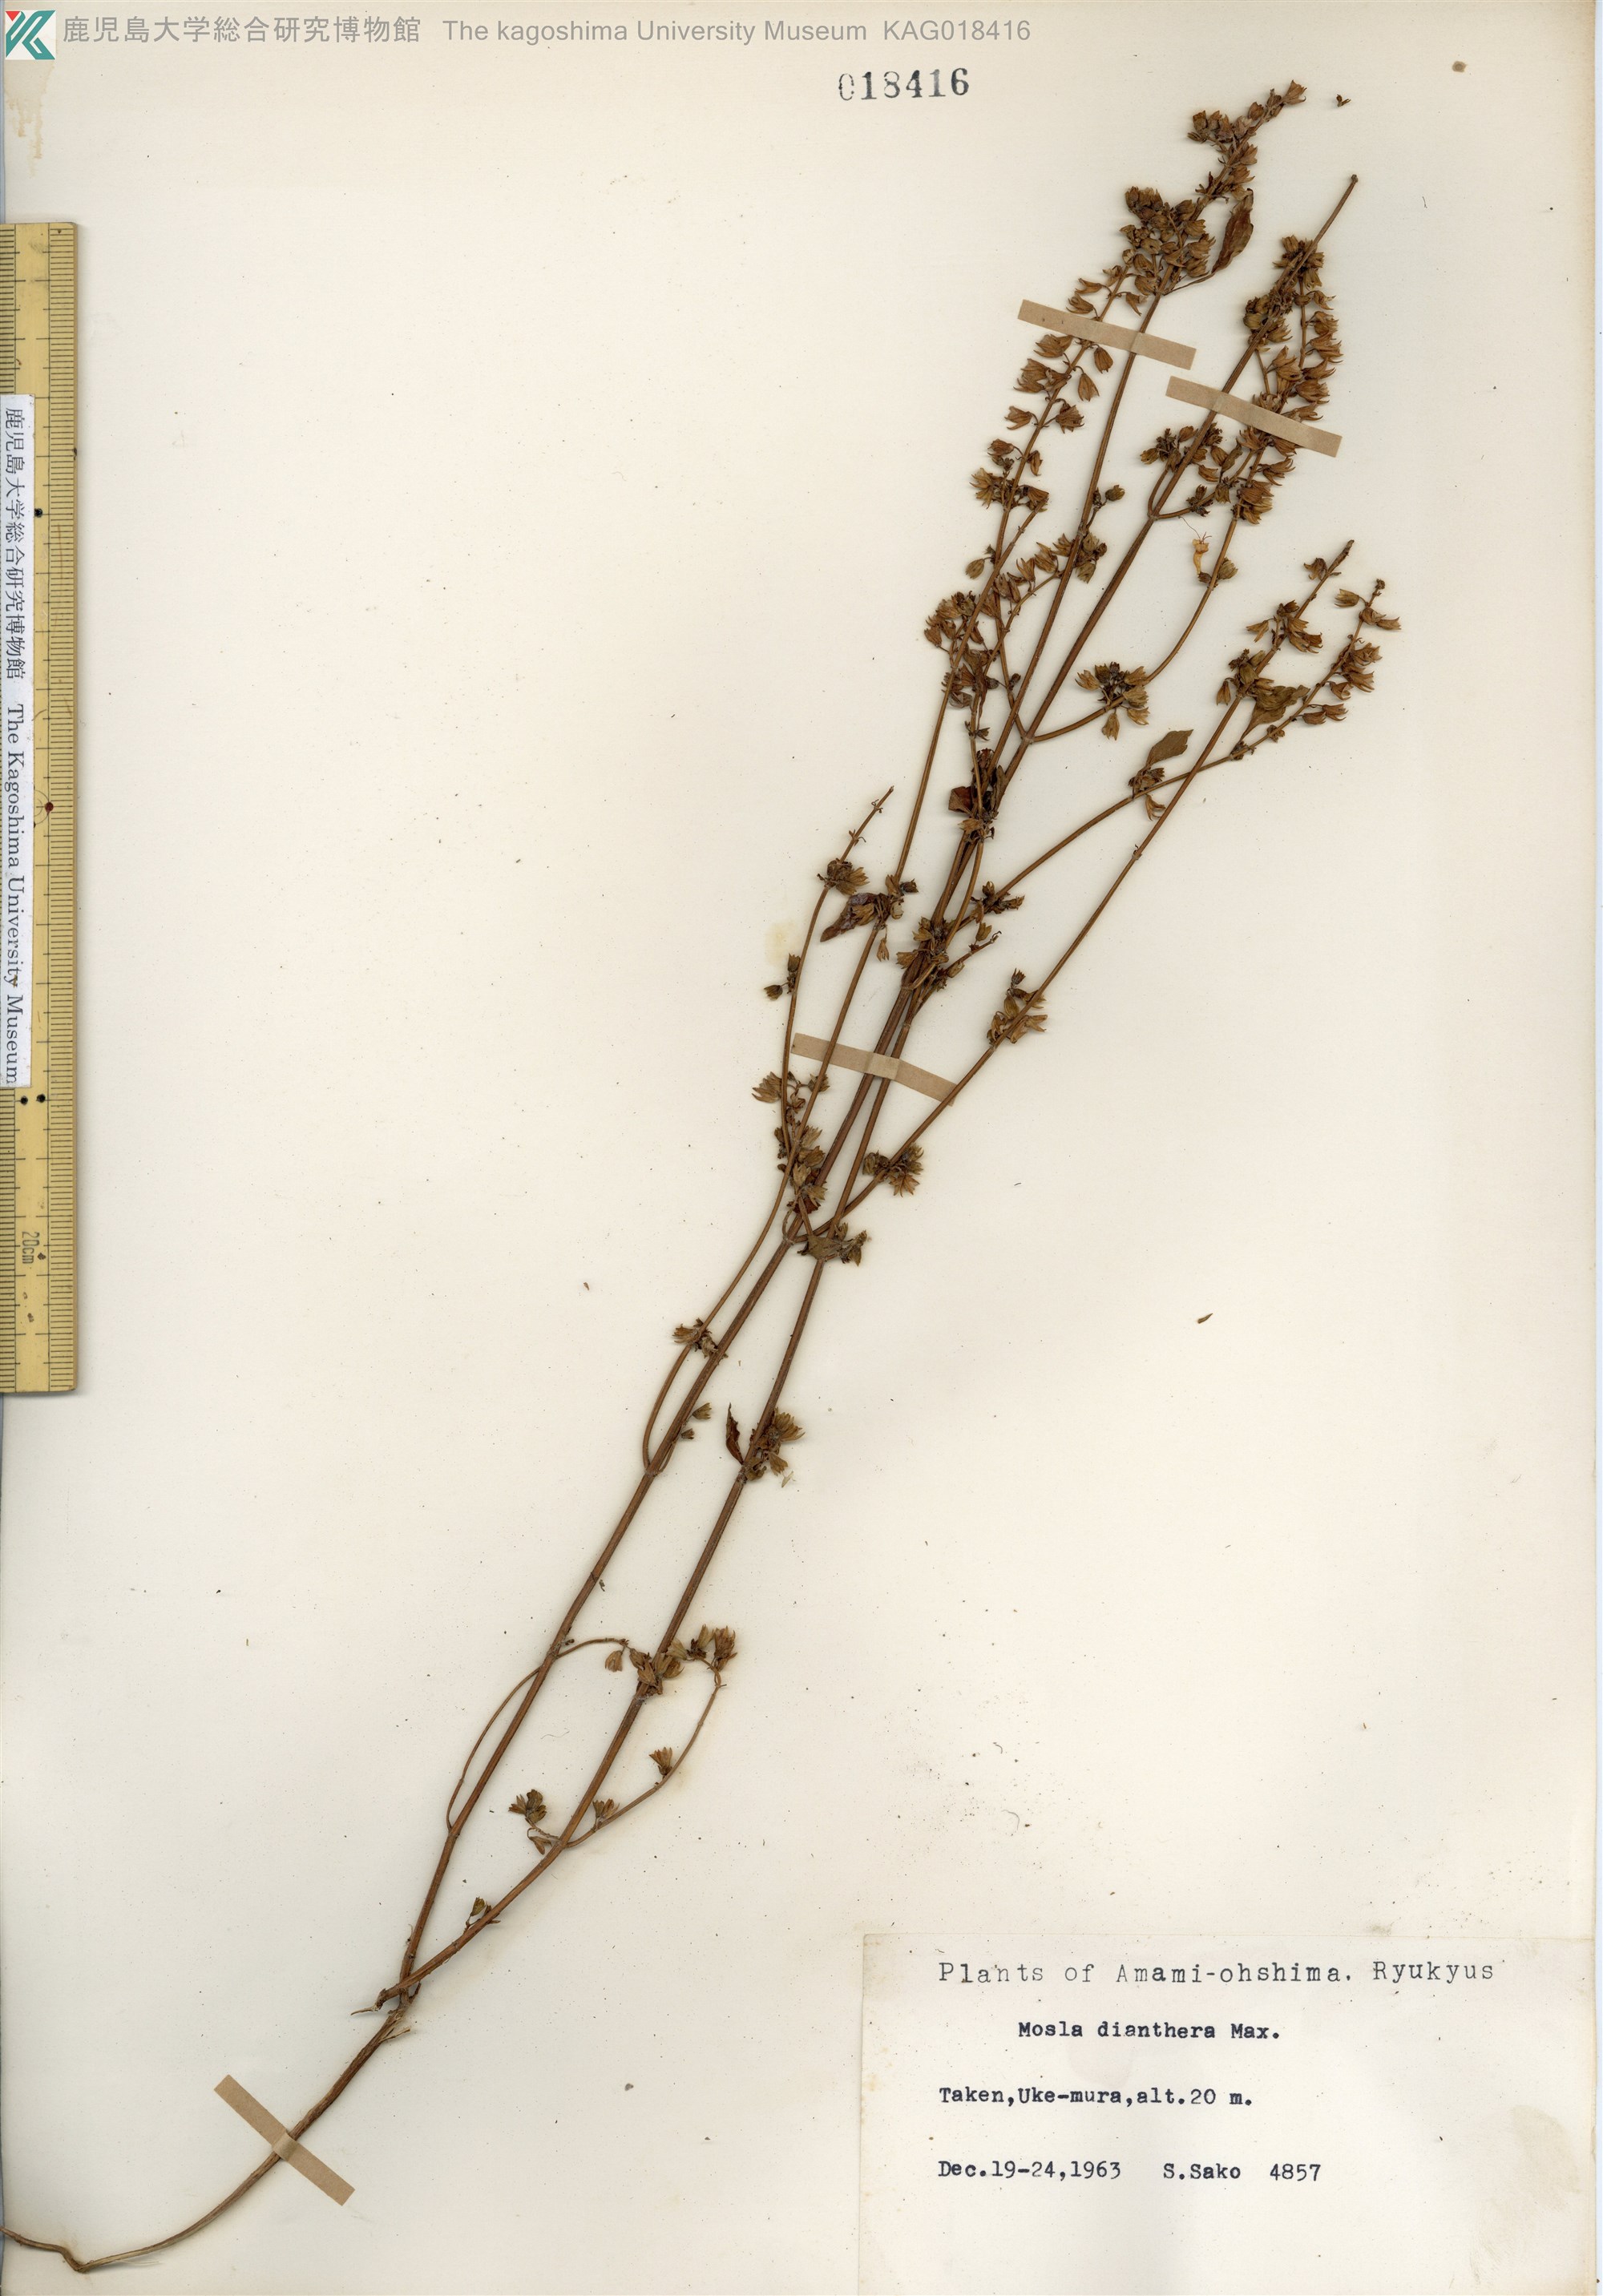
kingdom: Plantae
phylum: Tracheophyta
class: Magnoliopsida
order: Lamiales
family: Lamiaceae
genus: Mosla
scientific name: Mosla dianthera
